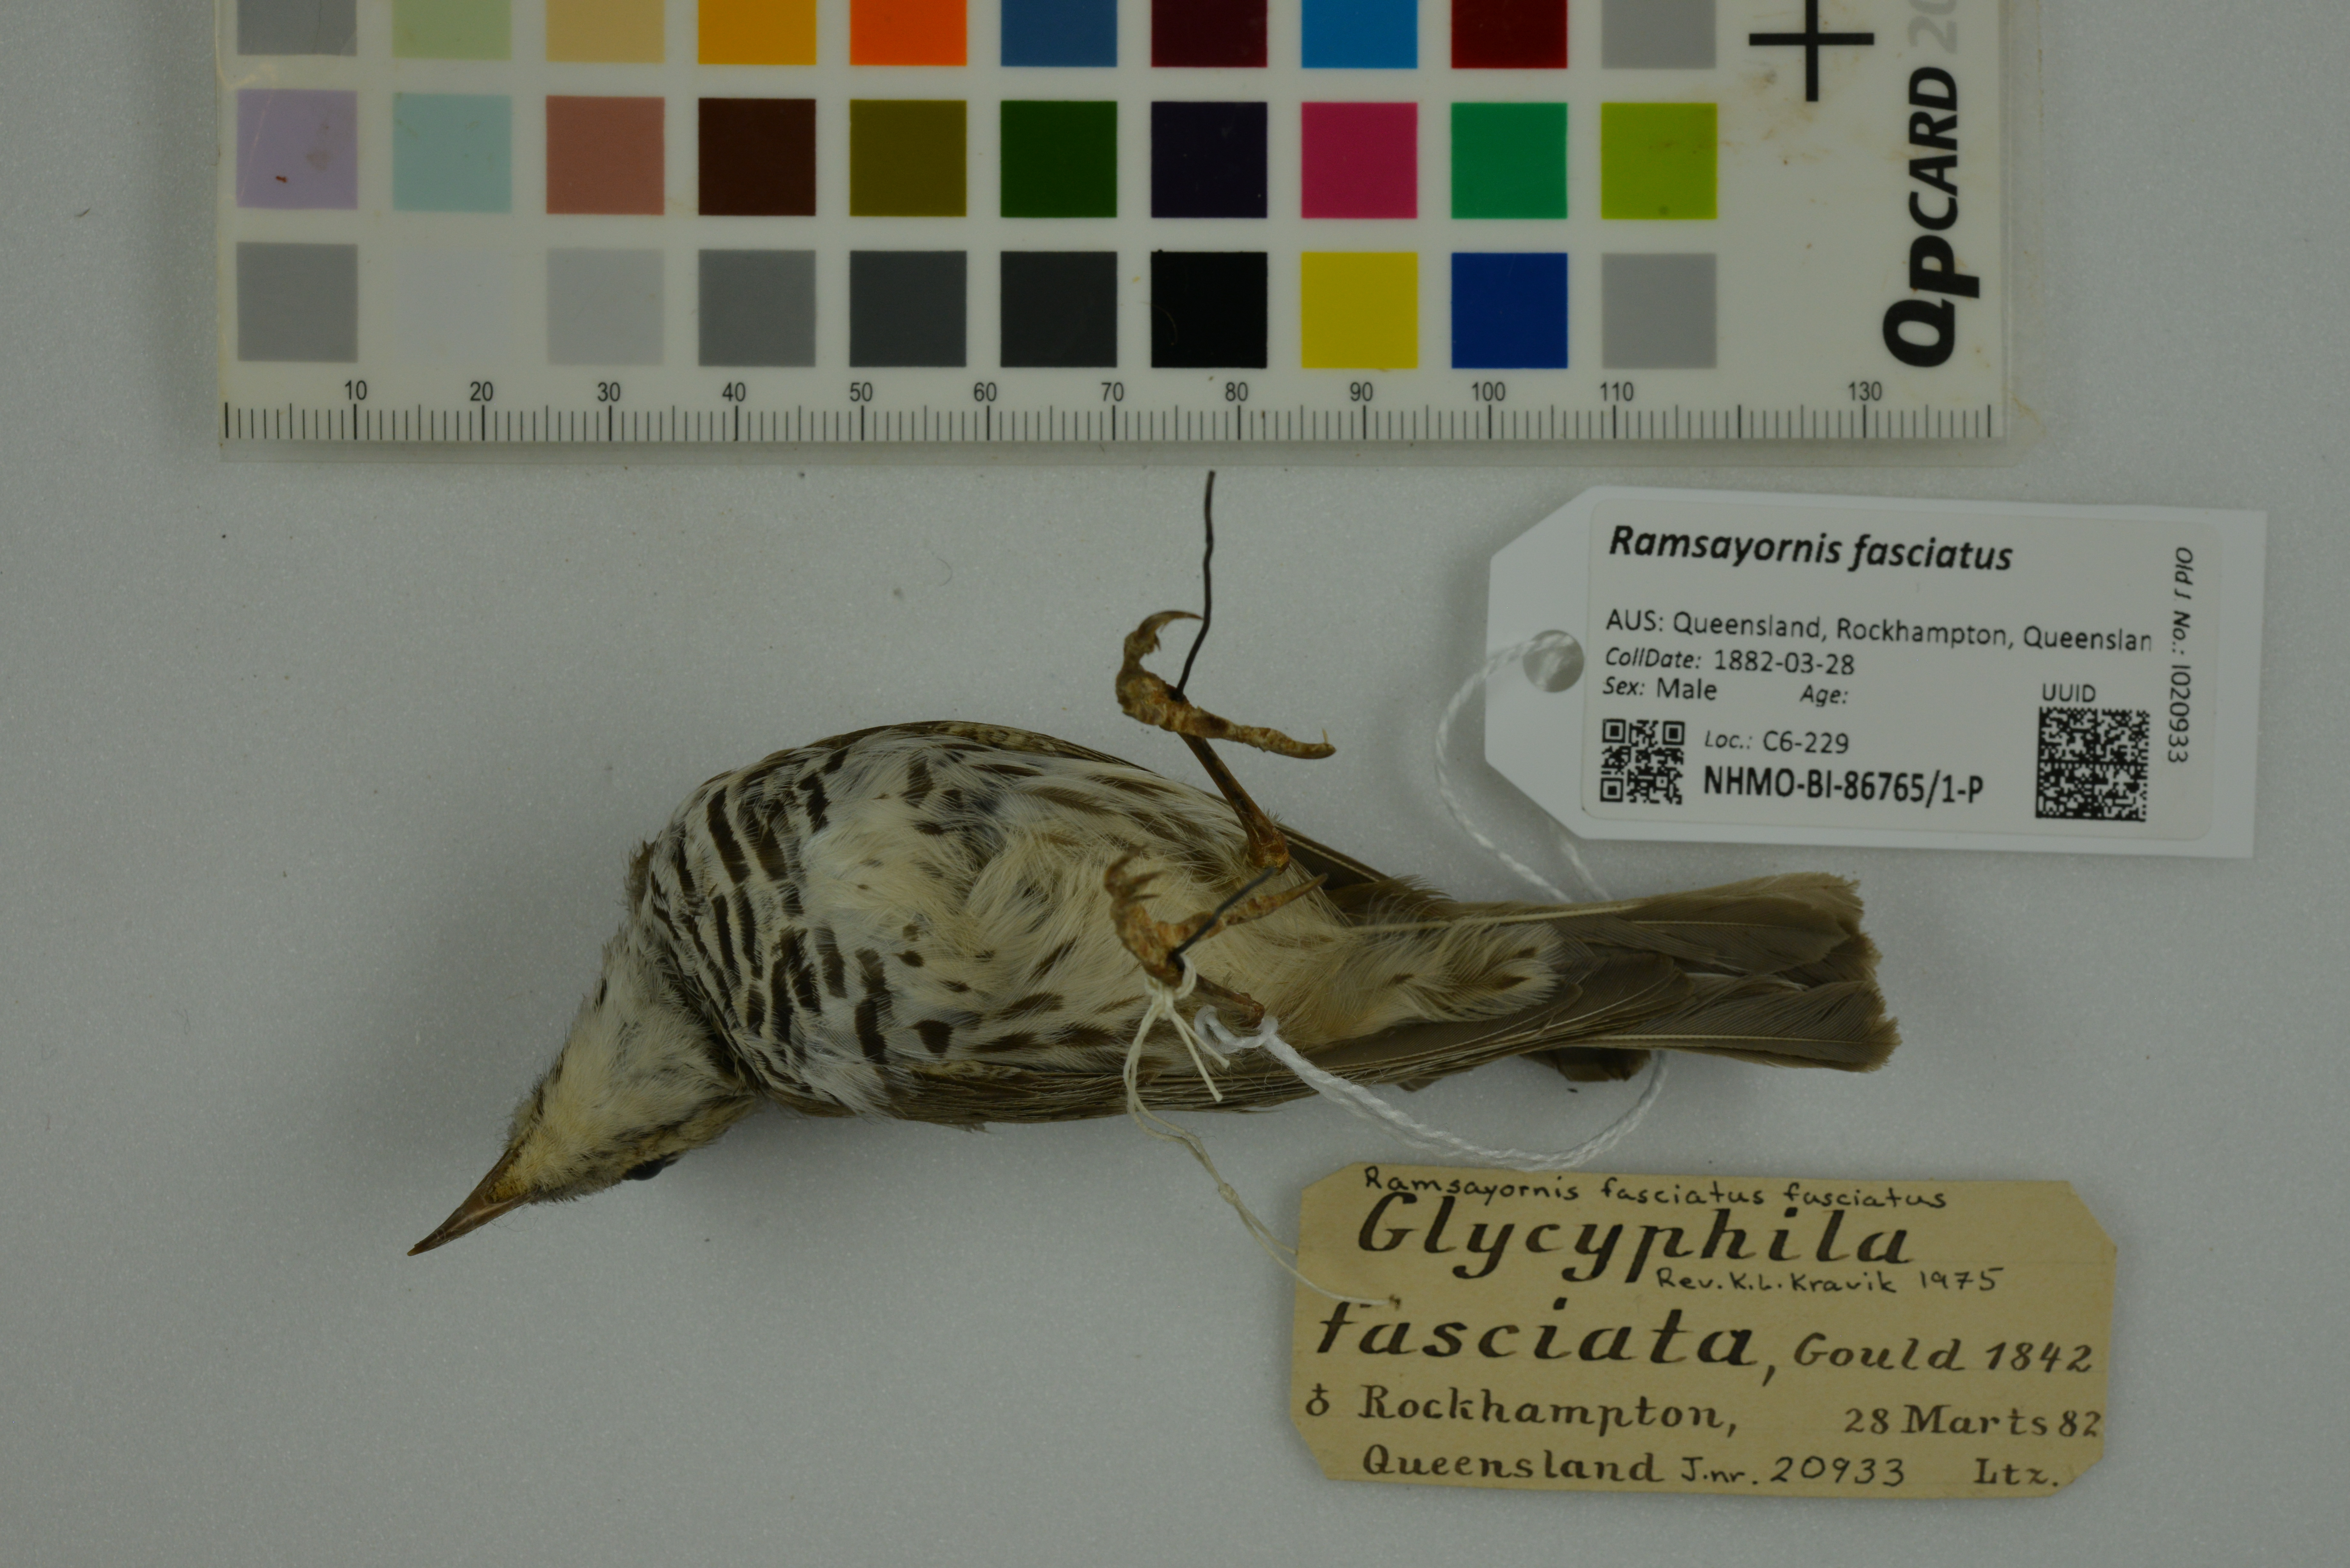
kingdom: Animalia
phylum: Chordata
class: Aves
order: Passeriformes
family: Meliphagidae
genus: Ramsayornis
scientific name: Ramsayornis fasciatus
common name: Bar-breasted honeyeater
